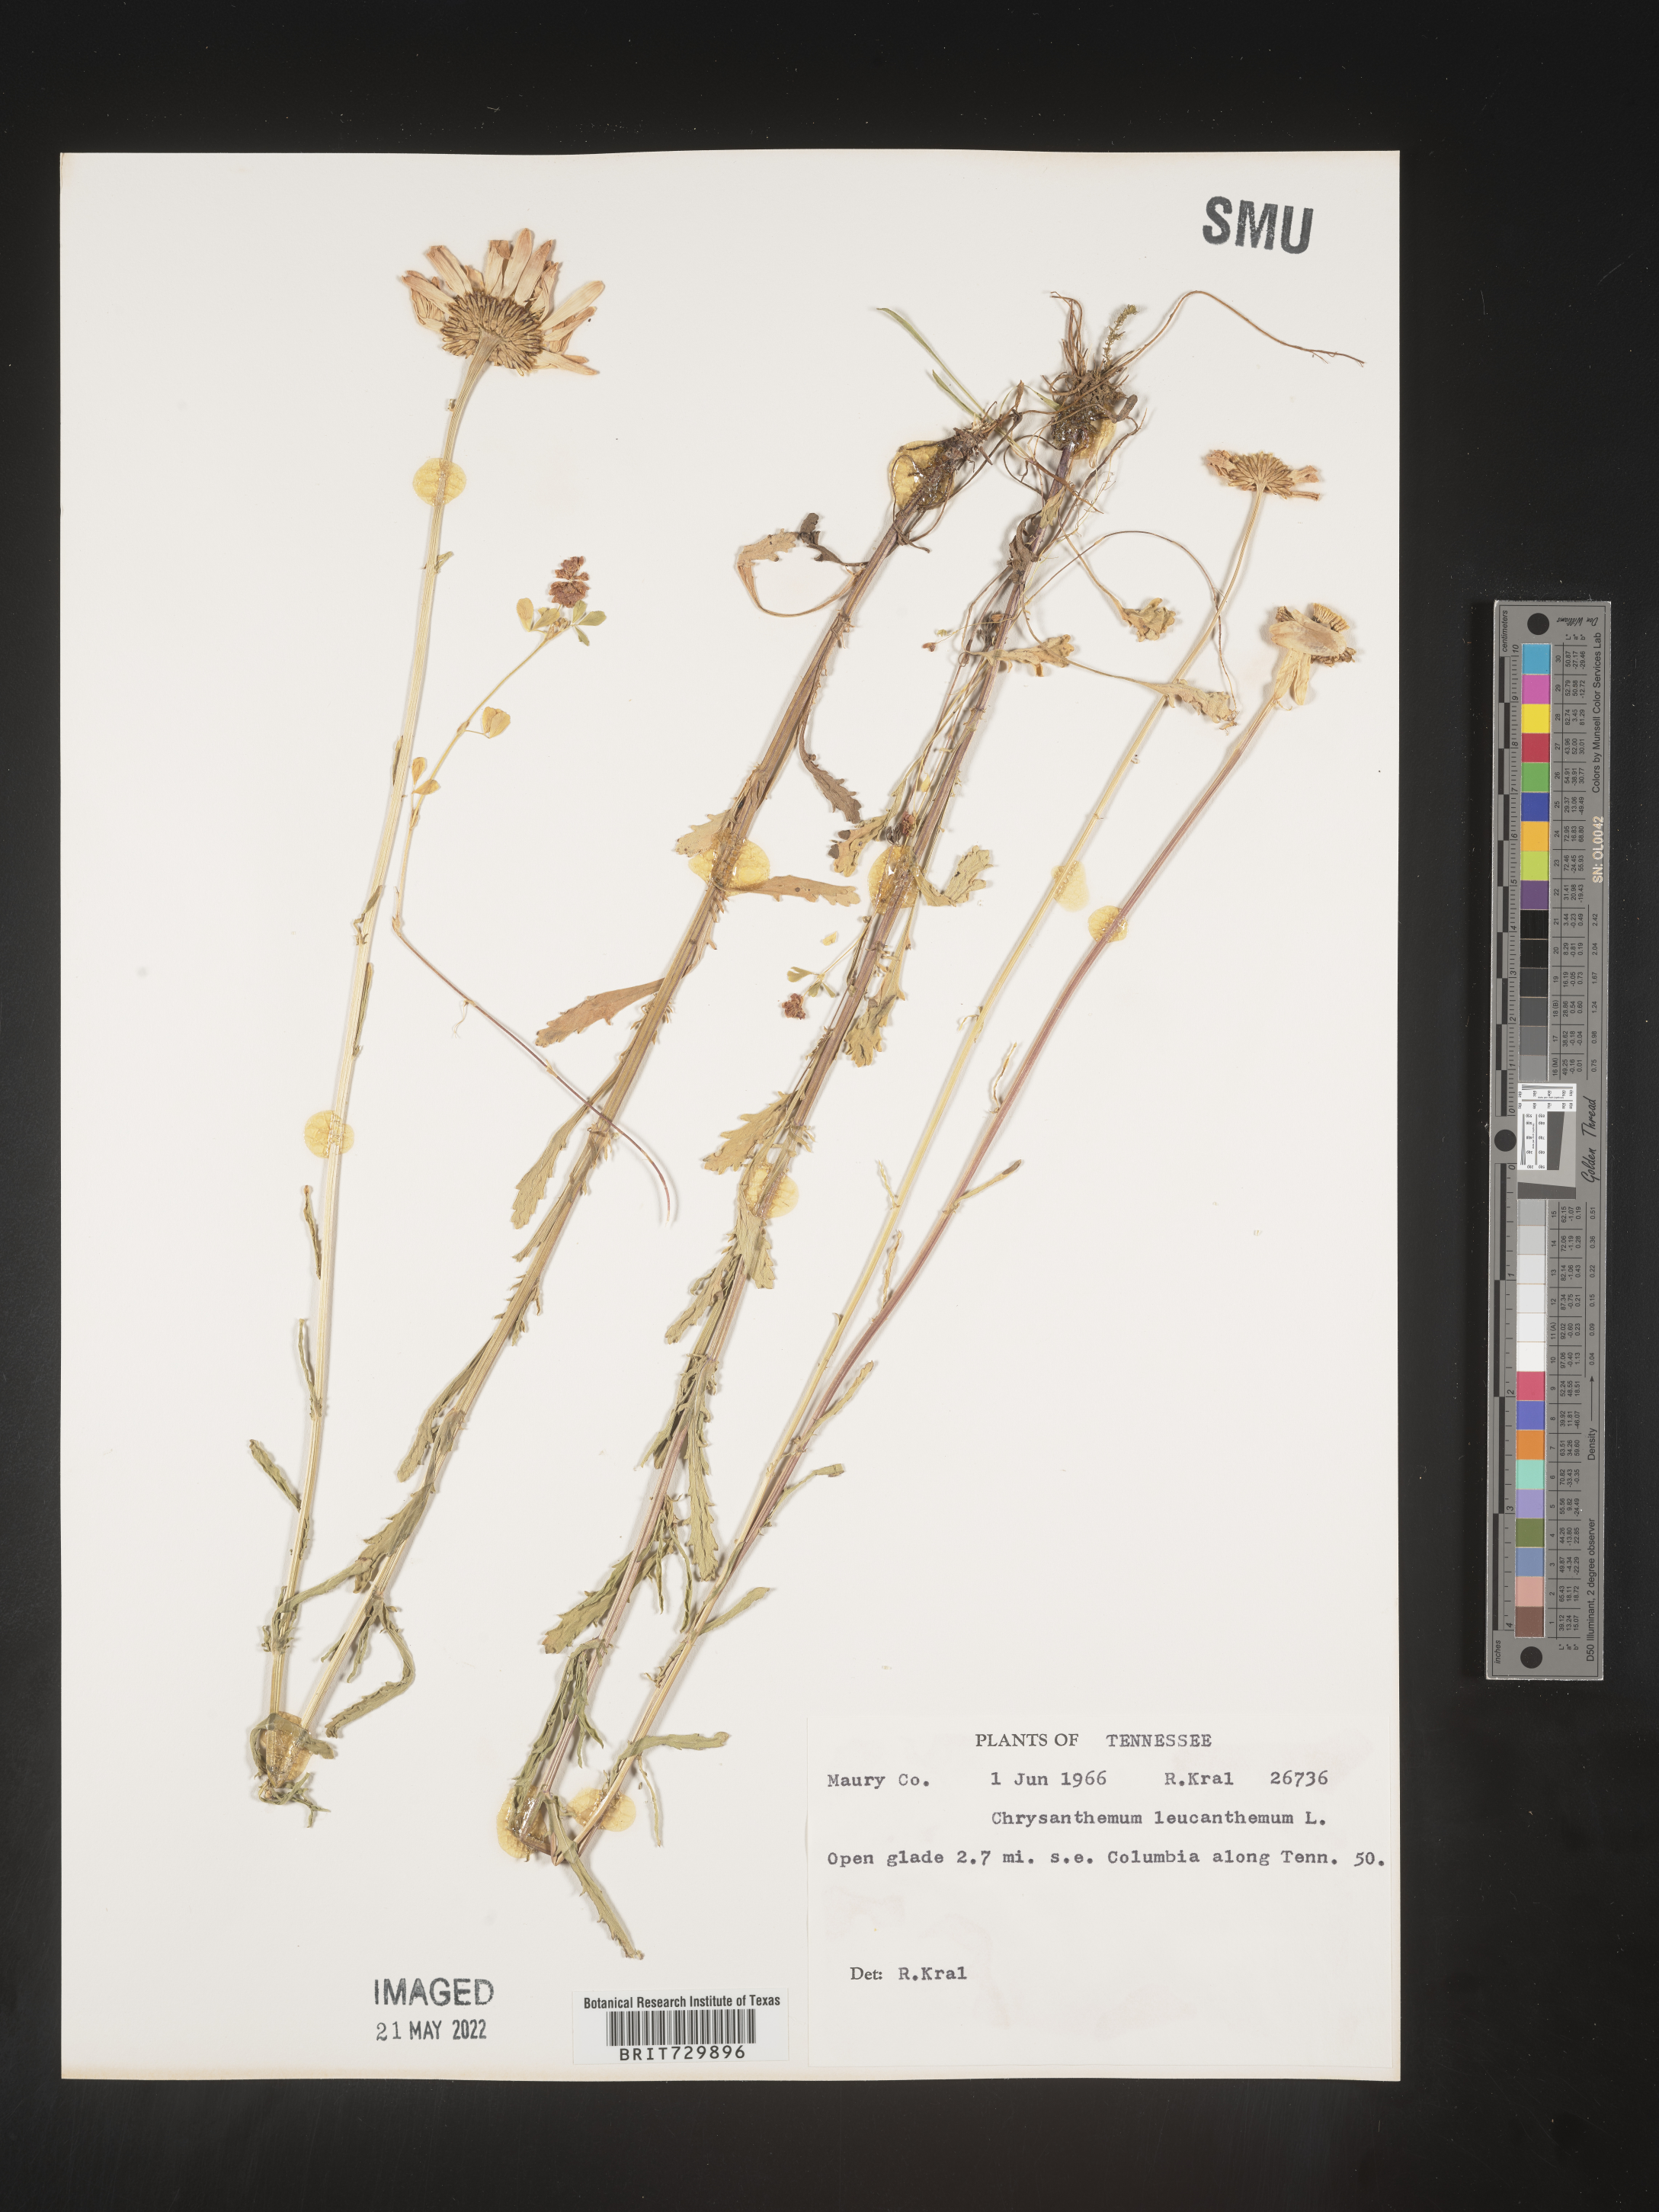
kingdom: Plantae
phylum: Tracheophyta
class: Magnoliopsida
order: Asterales
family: Asteraceae
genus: Leucanthemum
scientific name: Leucanthemum vulgare
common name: Oxeye daisy
